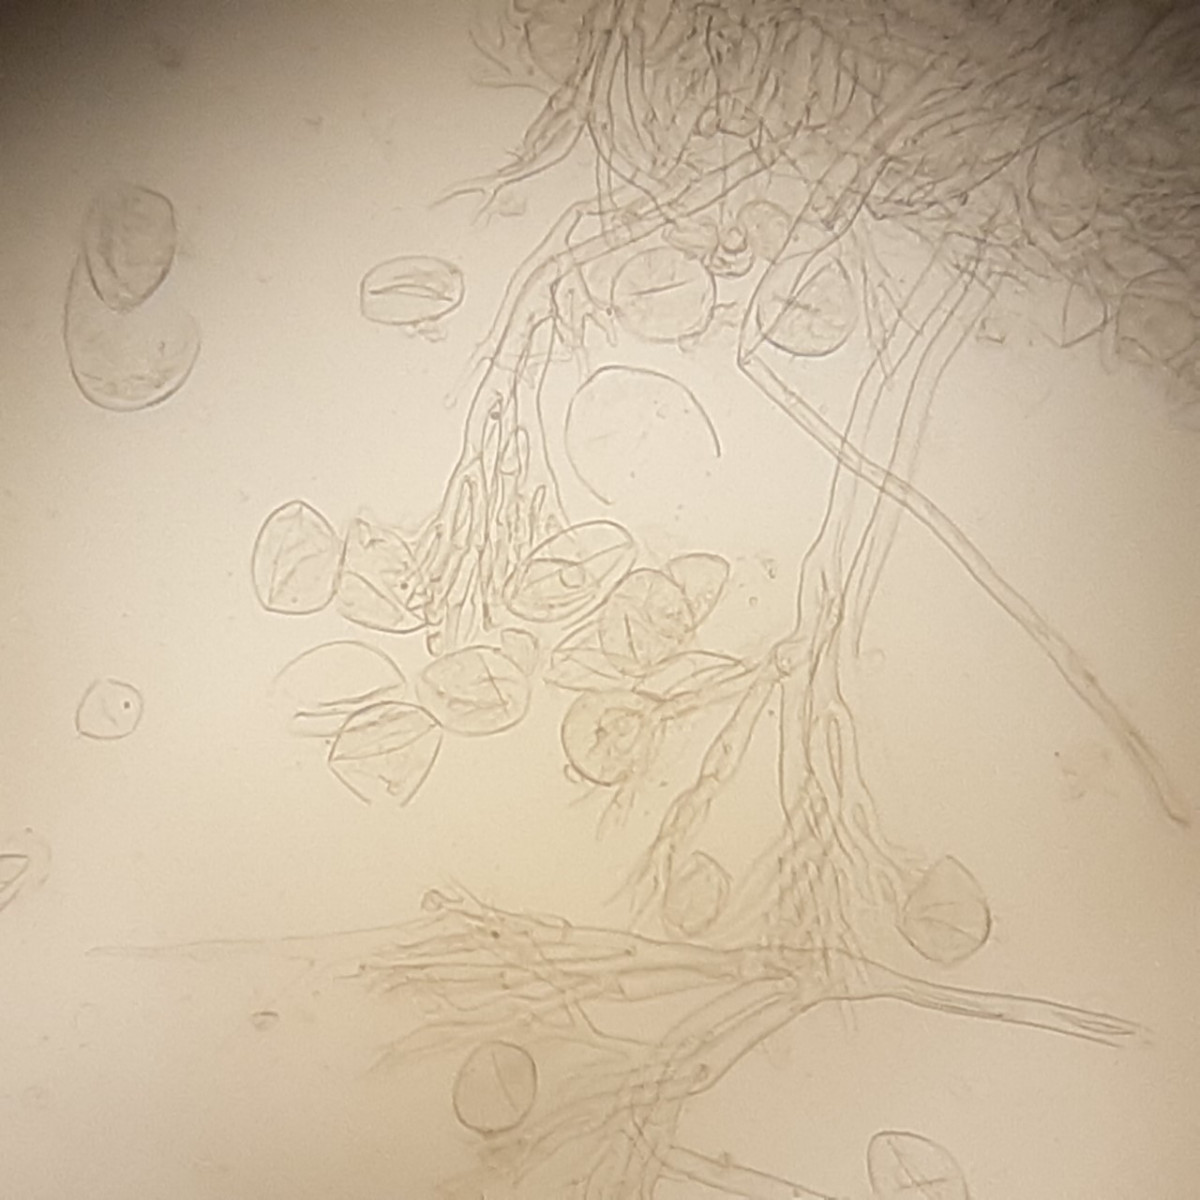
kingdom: Chromista
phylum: Oomycota
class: Peronosporea
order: Peronosporales
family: Peronosporaceae
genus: Hyaloperonospora
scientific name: Hyaloperonospora parasitica
